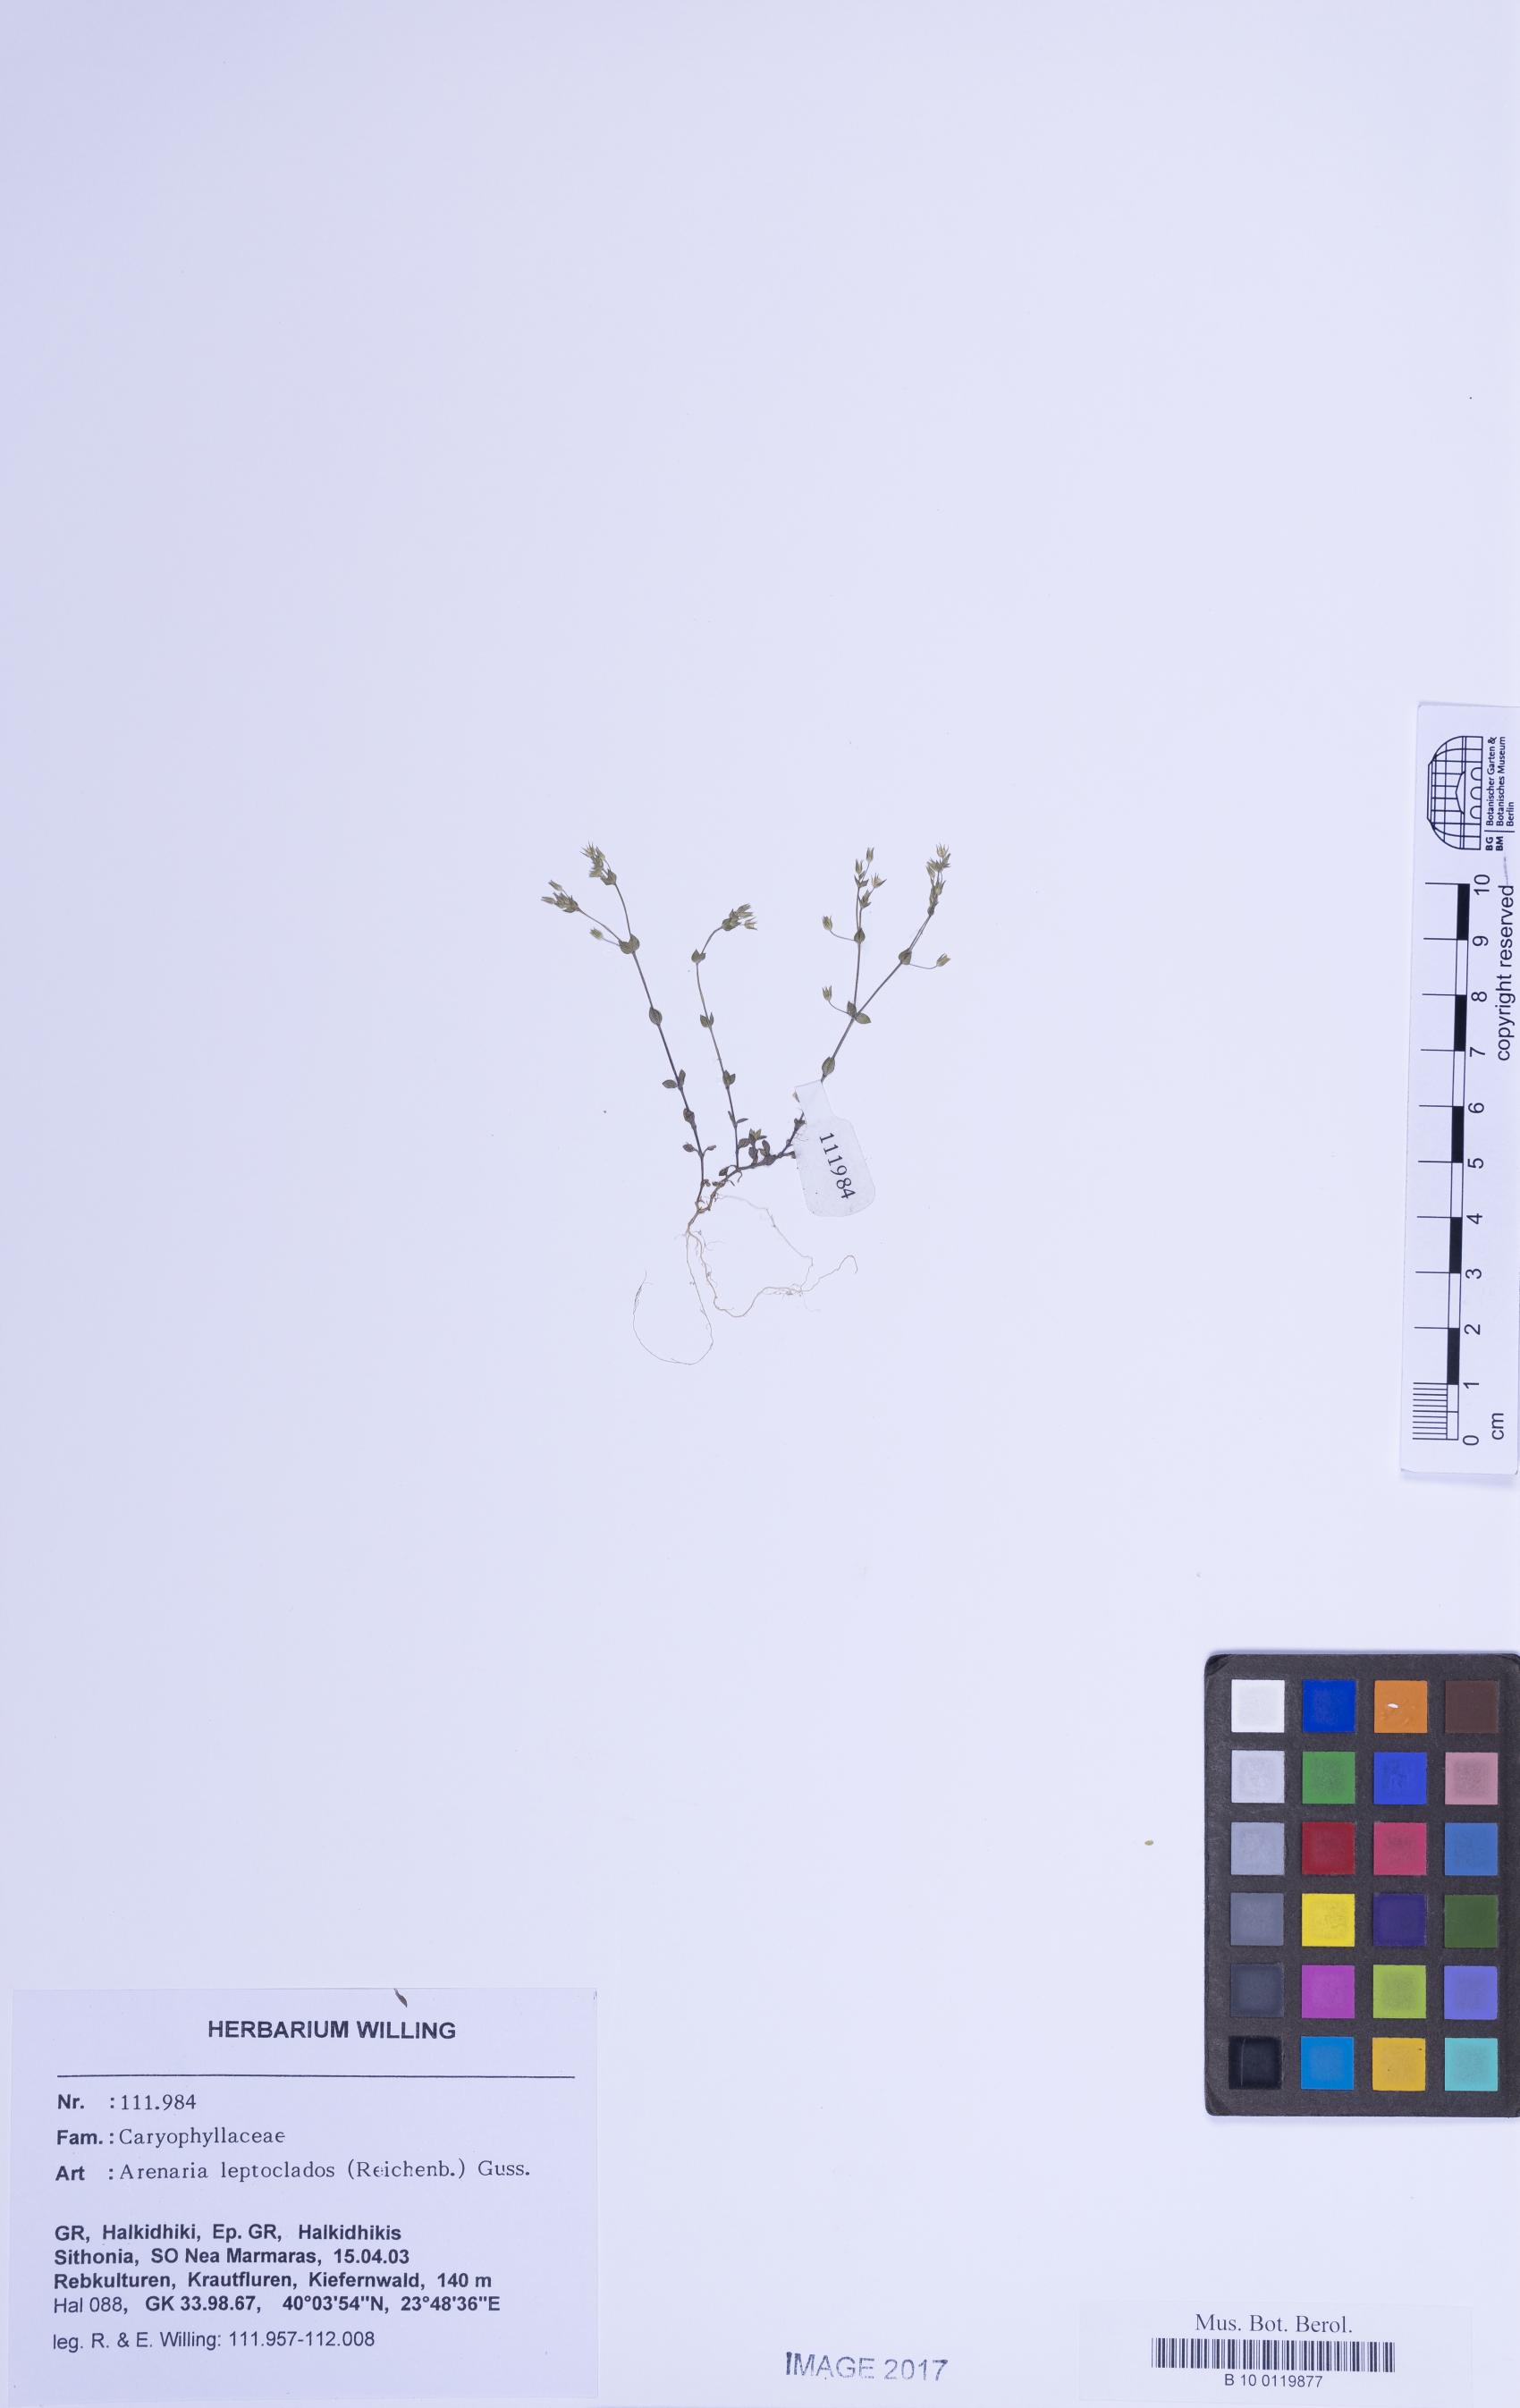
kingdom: Plantae
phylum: Tracheophyta
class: Magnoliopsida
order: Caryophyllales
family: Caryophyllaceae
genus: Arenaria
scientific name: Arenaria leptoclados
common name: Thyme-leaved sandwort
